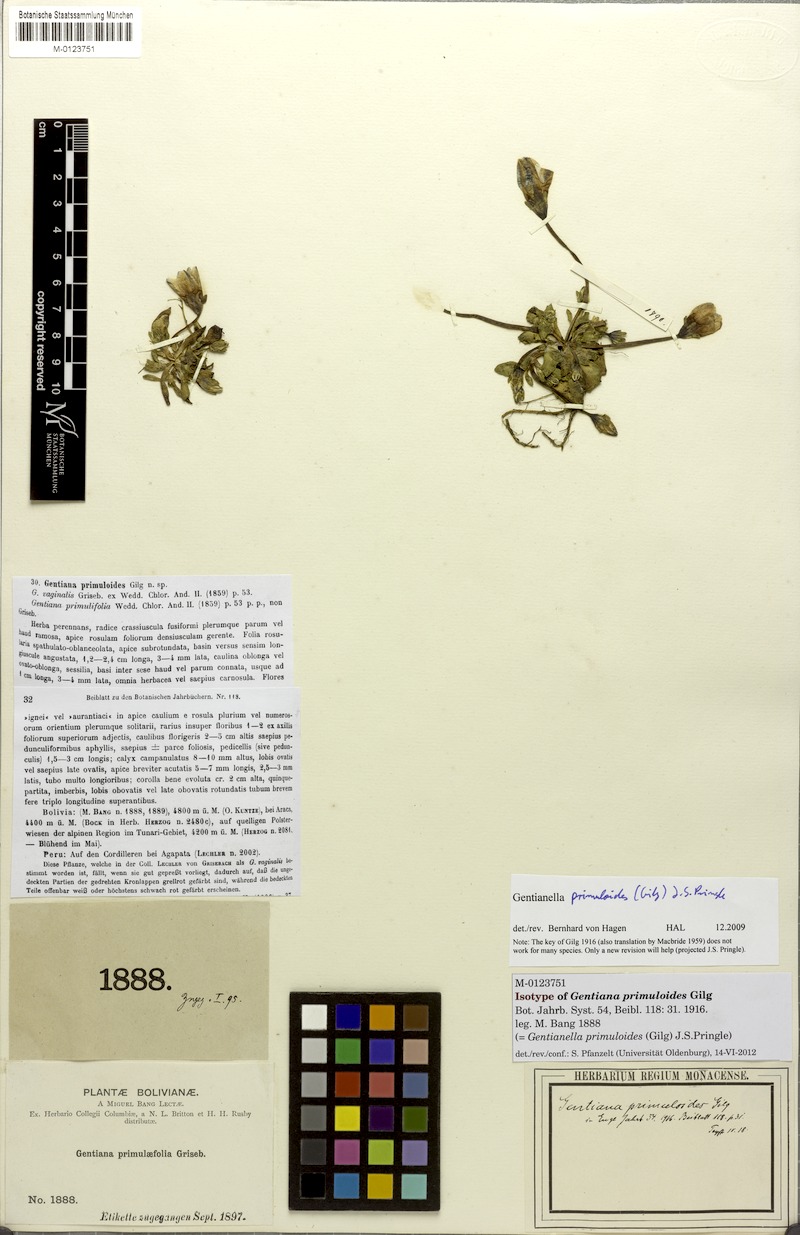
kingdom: Plantae
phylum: Tracheophyta
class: Magnoliopsida
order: Gentianales
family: Gentianaceae
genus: Gentianella
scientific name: Gentianella primuloides
